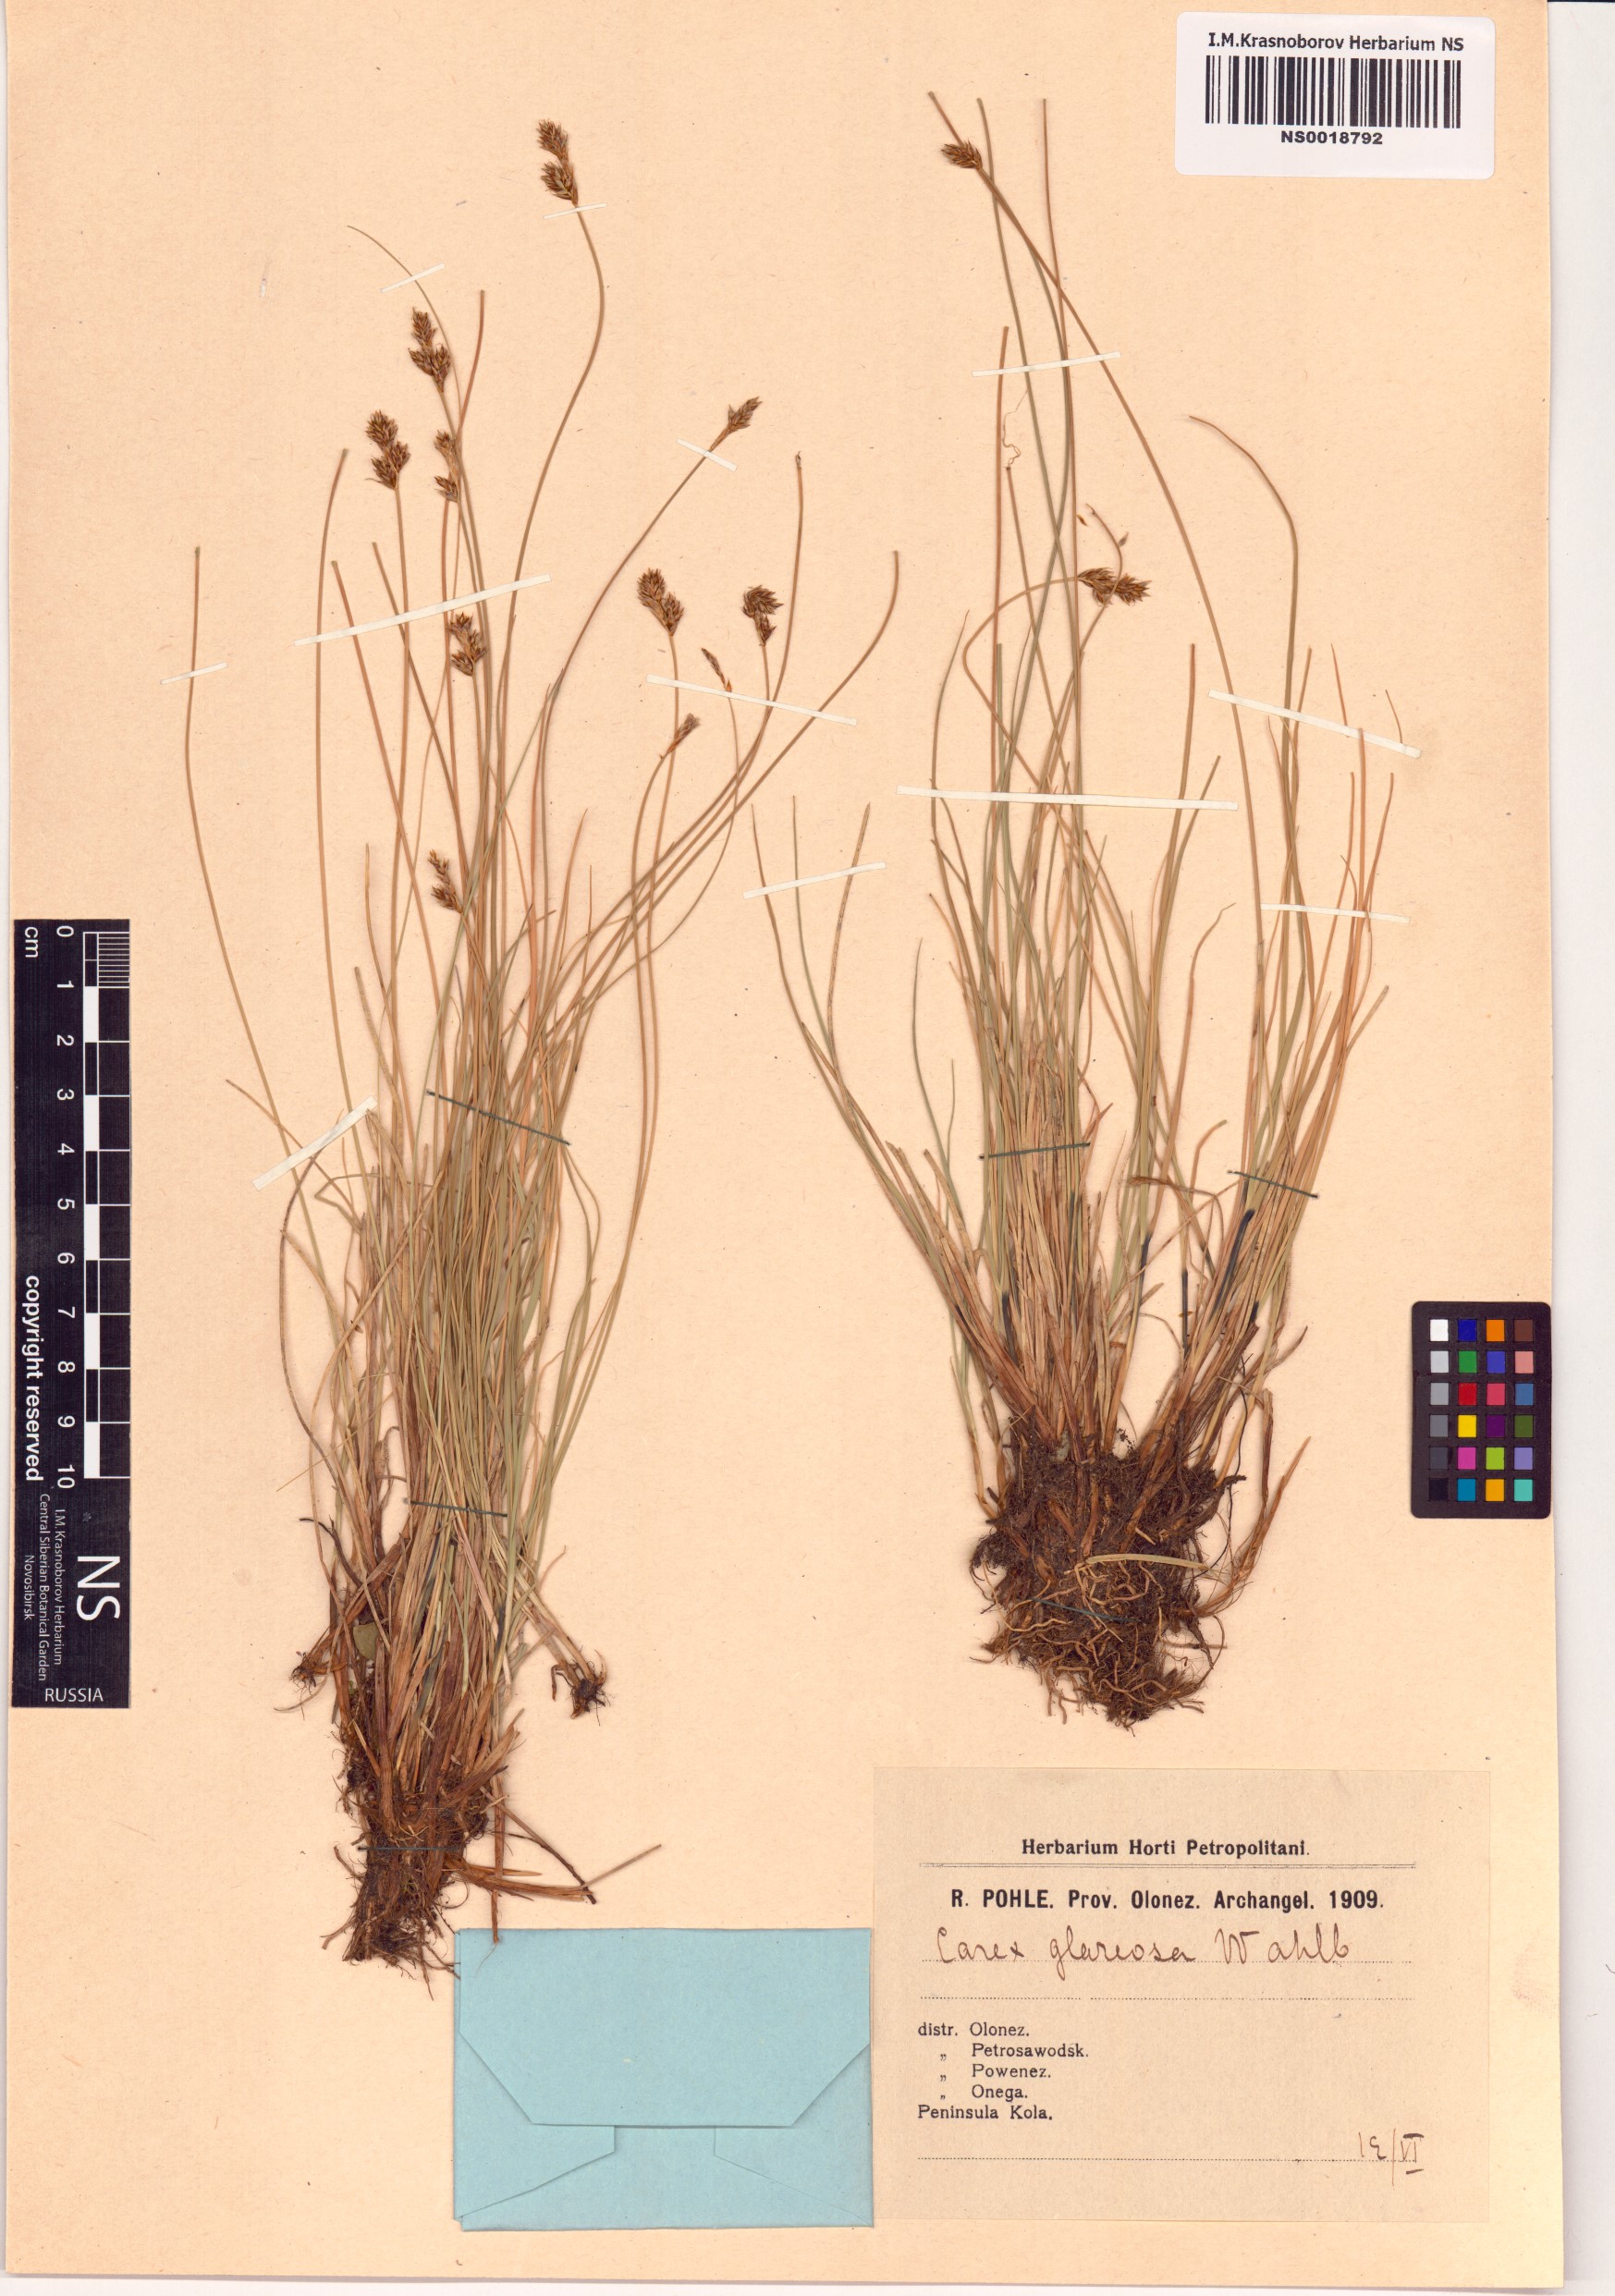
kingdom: Plantae
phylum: Tracheophyta
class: Liliopsida
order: Poales
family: Cyperaceae
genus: Carex
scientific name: Carex glareosa
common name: Clustered sedge
